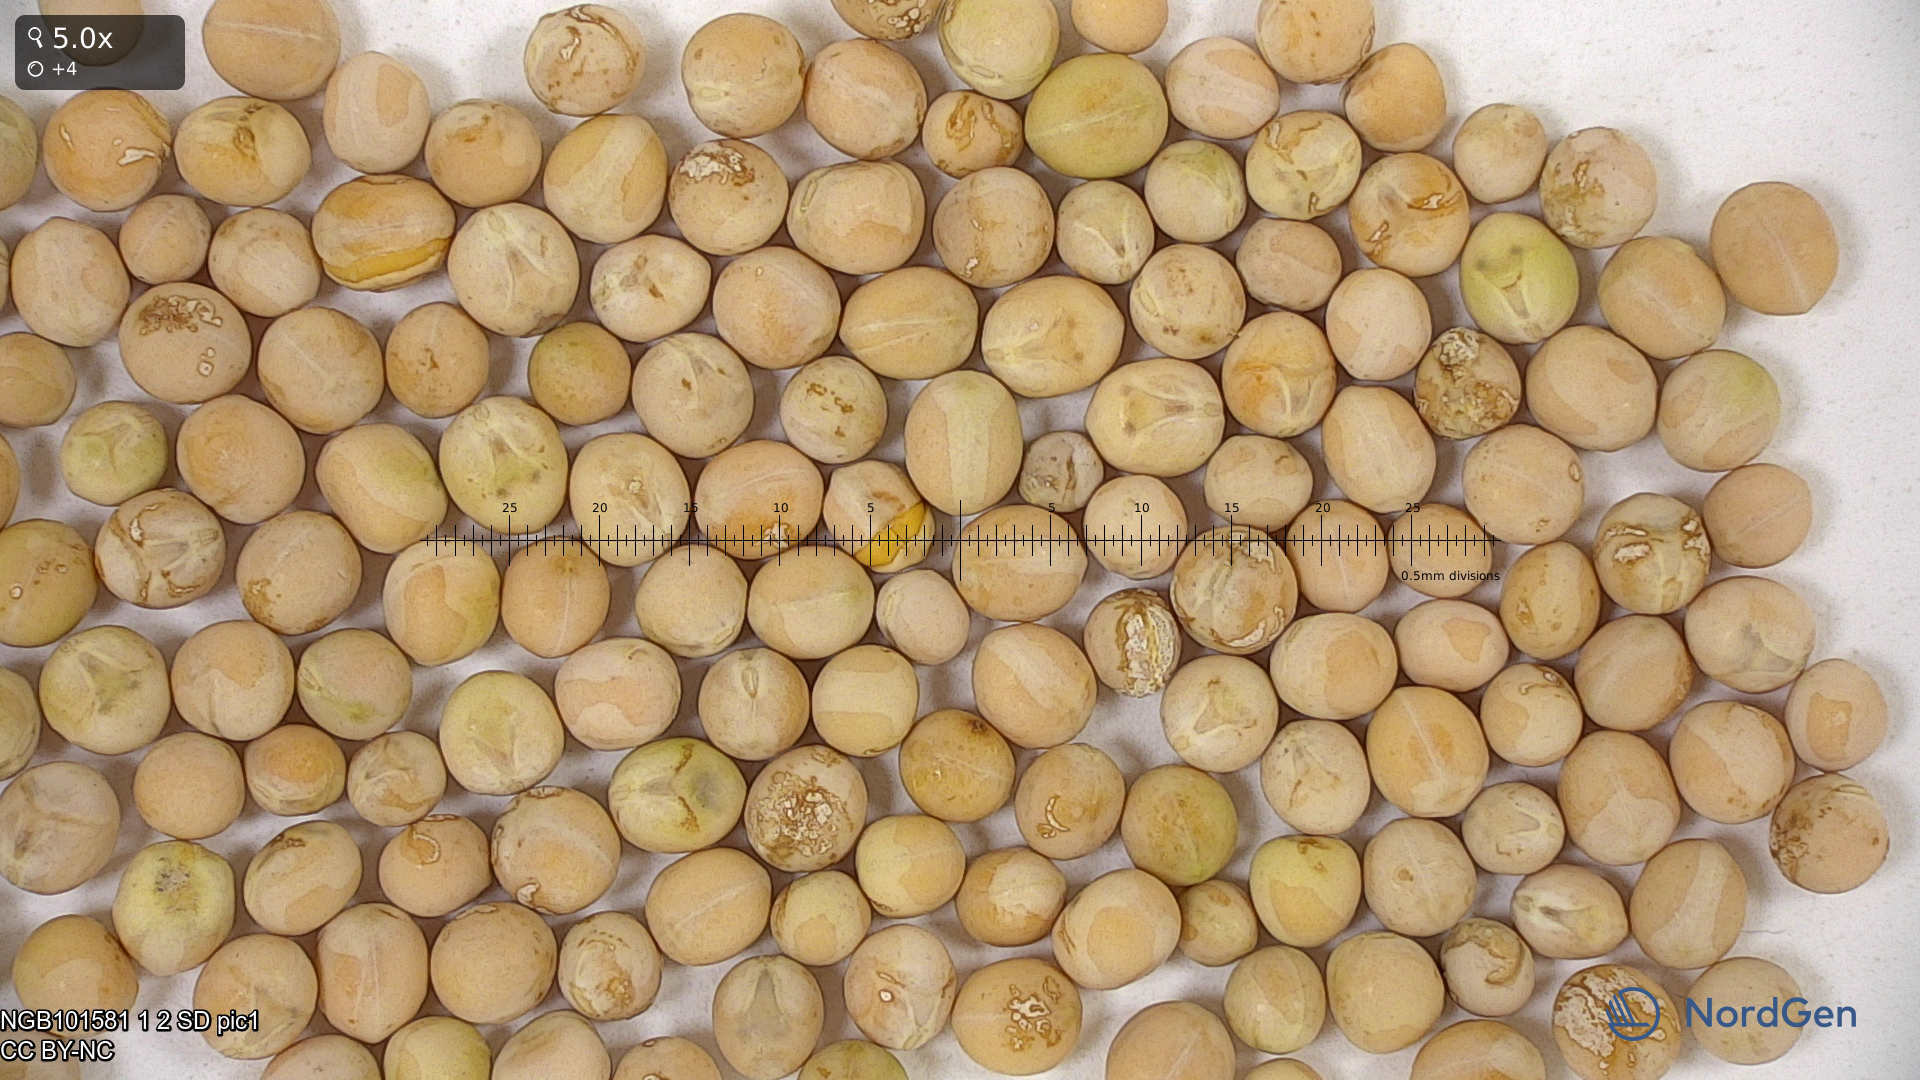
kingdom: Plantae
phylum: Tracheophyta
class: Magnoliopsida
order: Fabales
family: Fabaceae
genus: Lathyrus
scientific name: Lathyrus oleraceus
